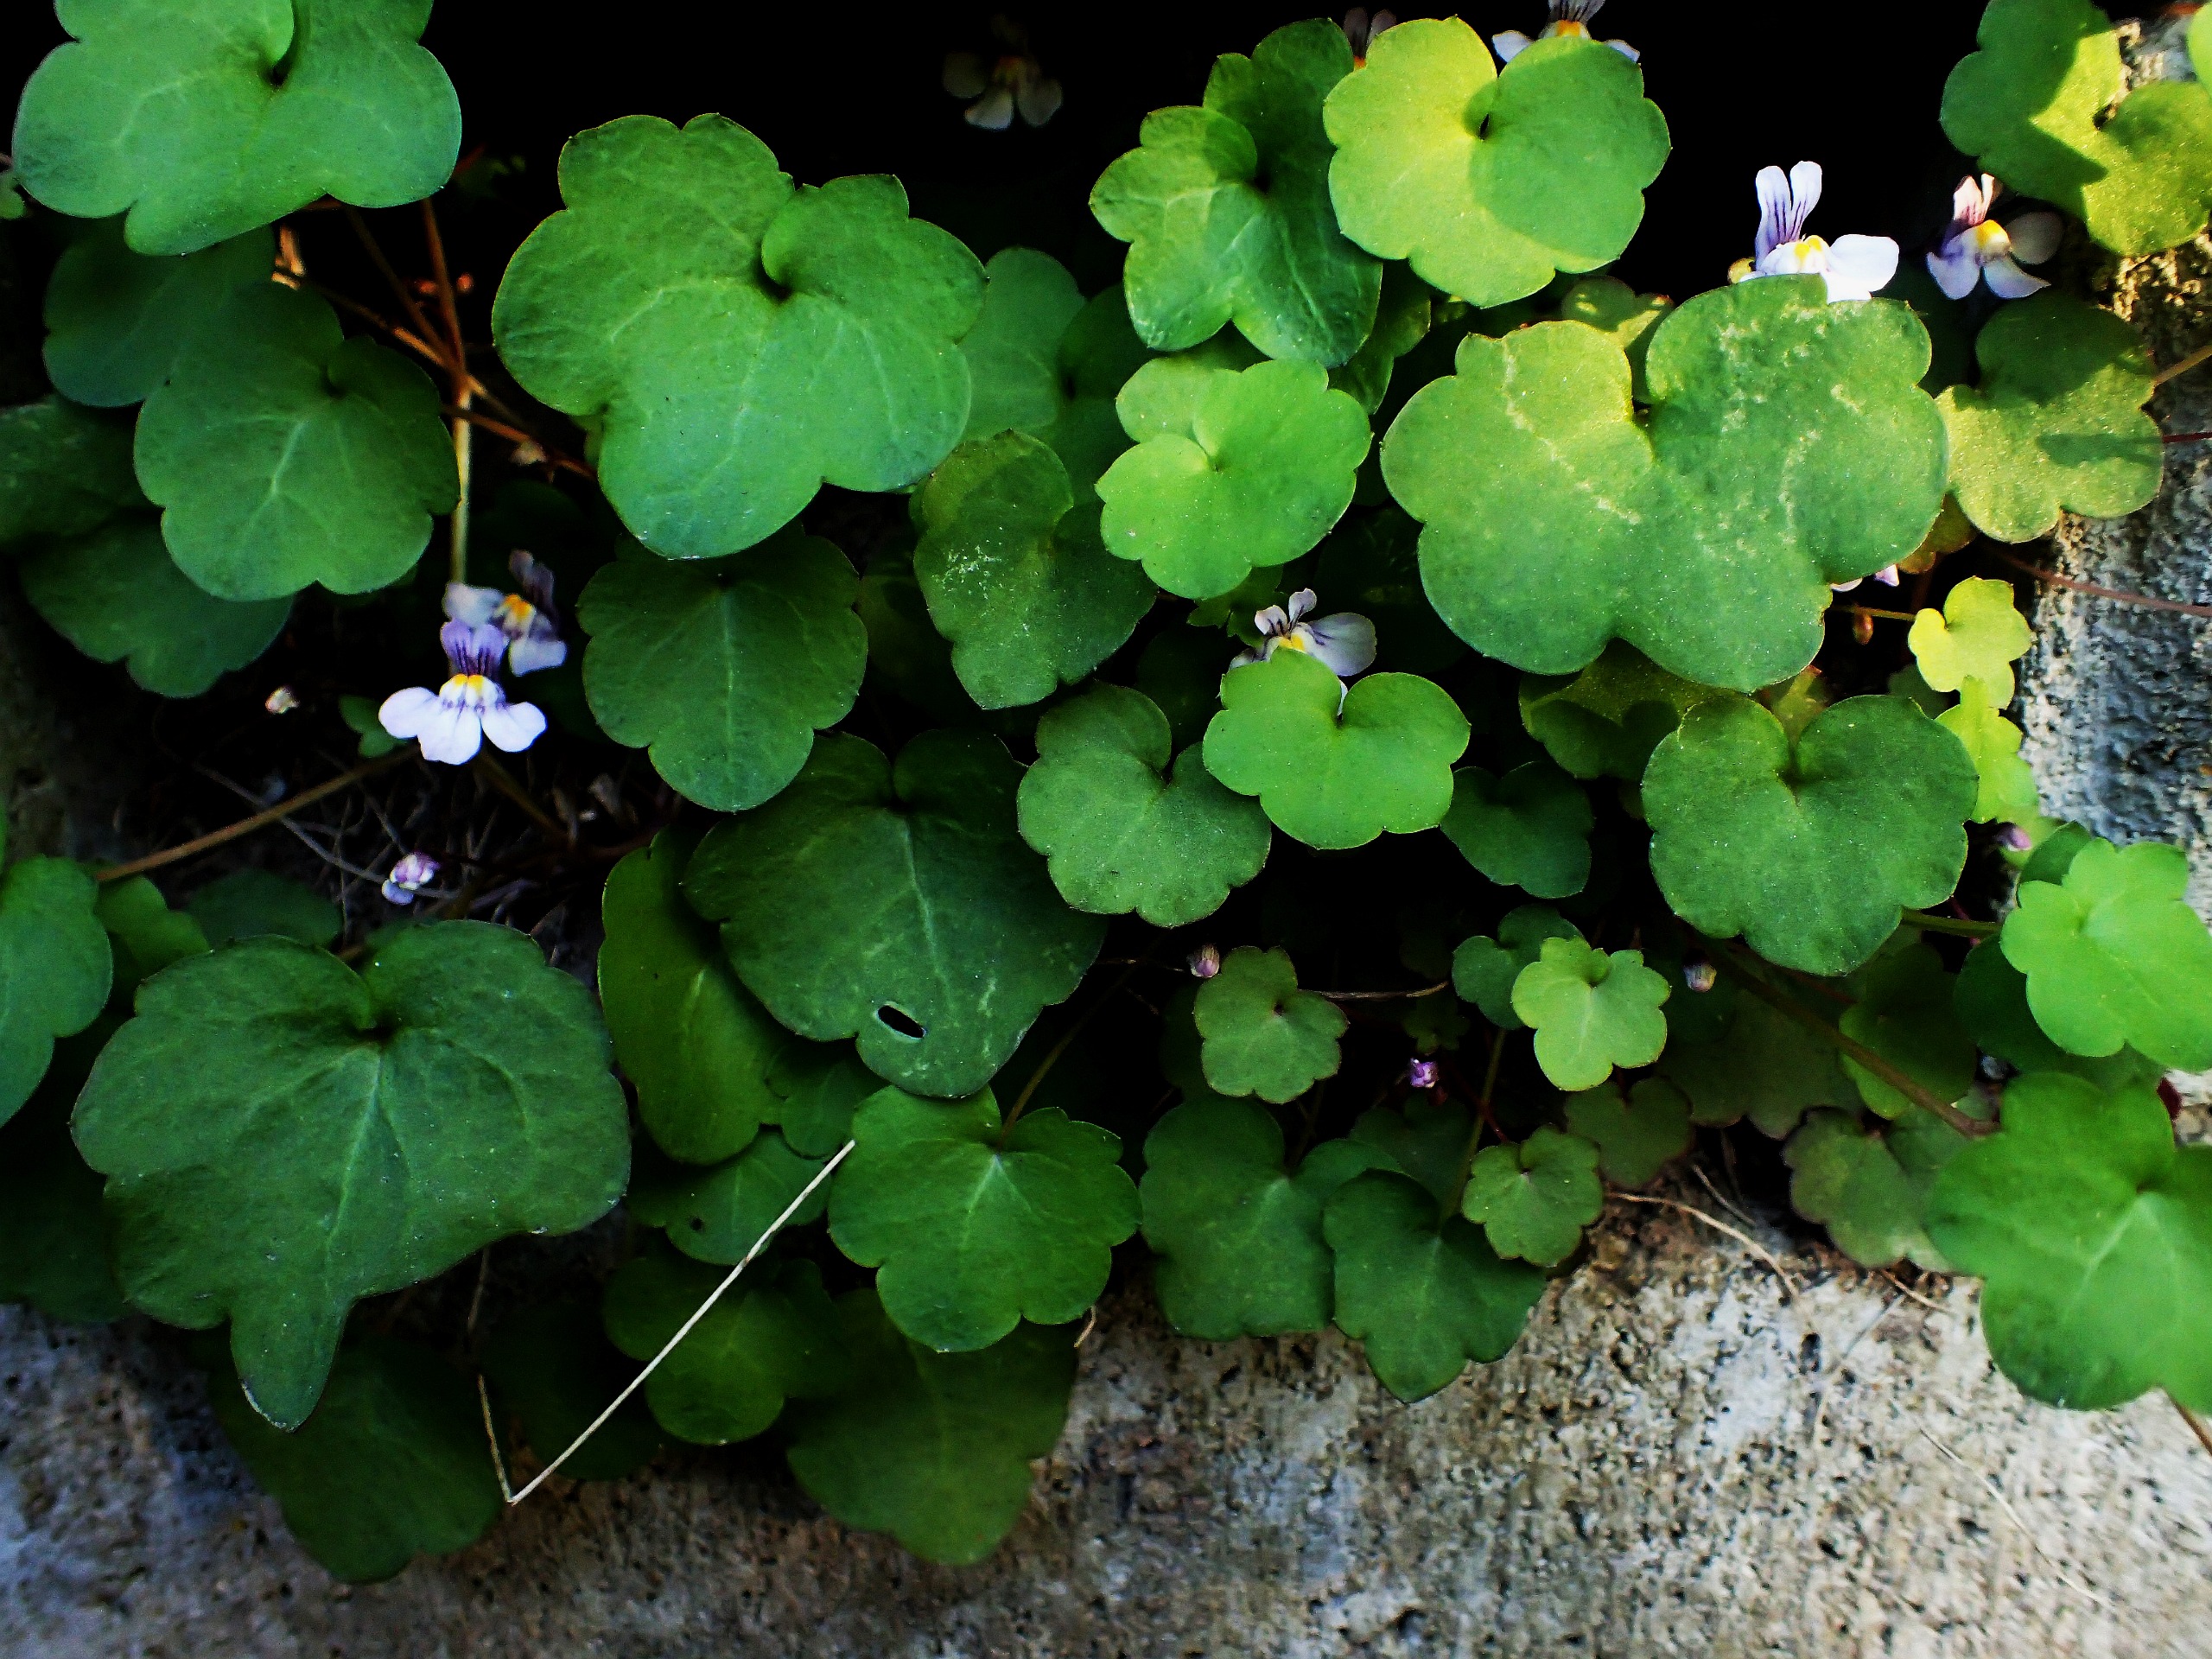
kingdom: Plantae
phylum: Tracheophyta
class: Magnoliopsida
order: Lamiales
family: Plantaginaceae
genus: Cymbalaria
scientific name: Cymbalaria muralis
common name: Vedbend-torskemund
